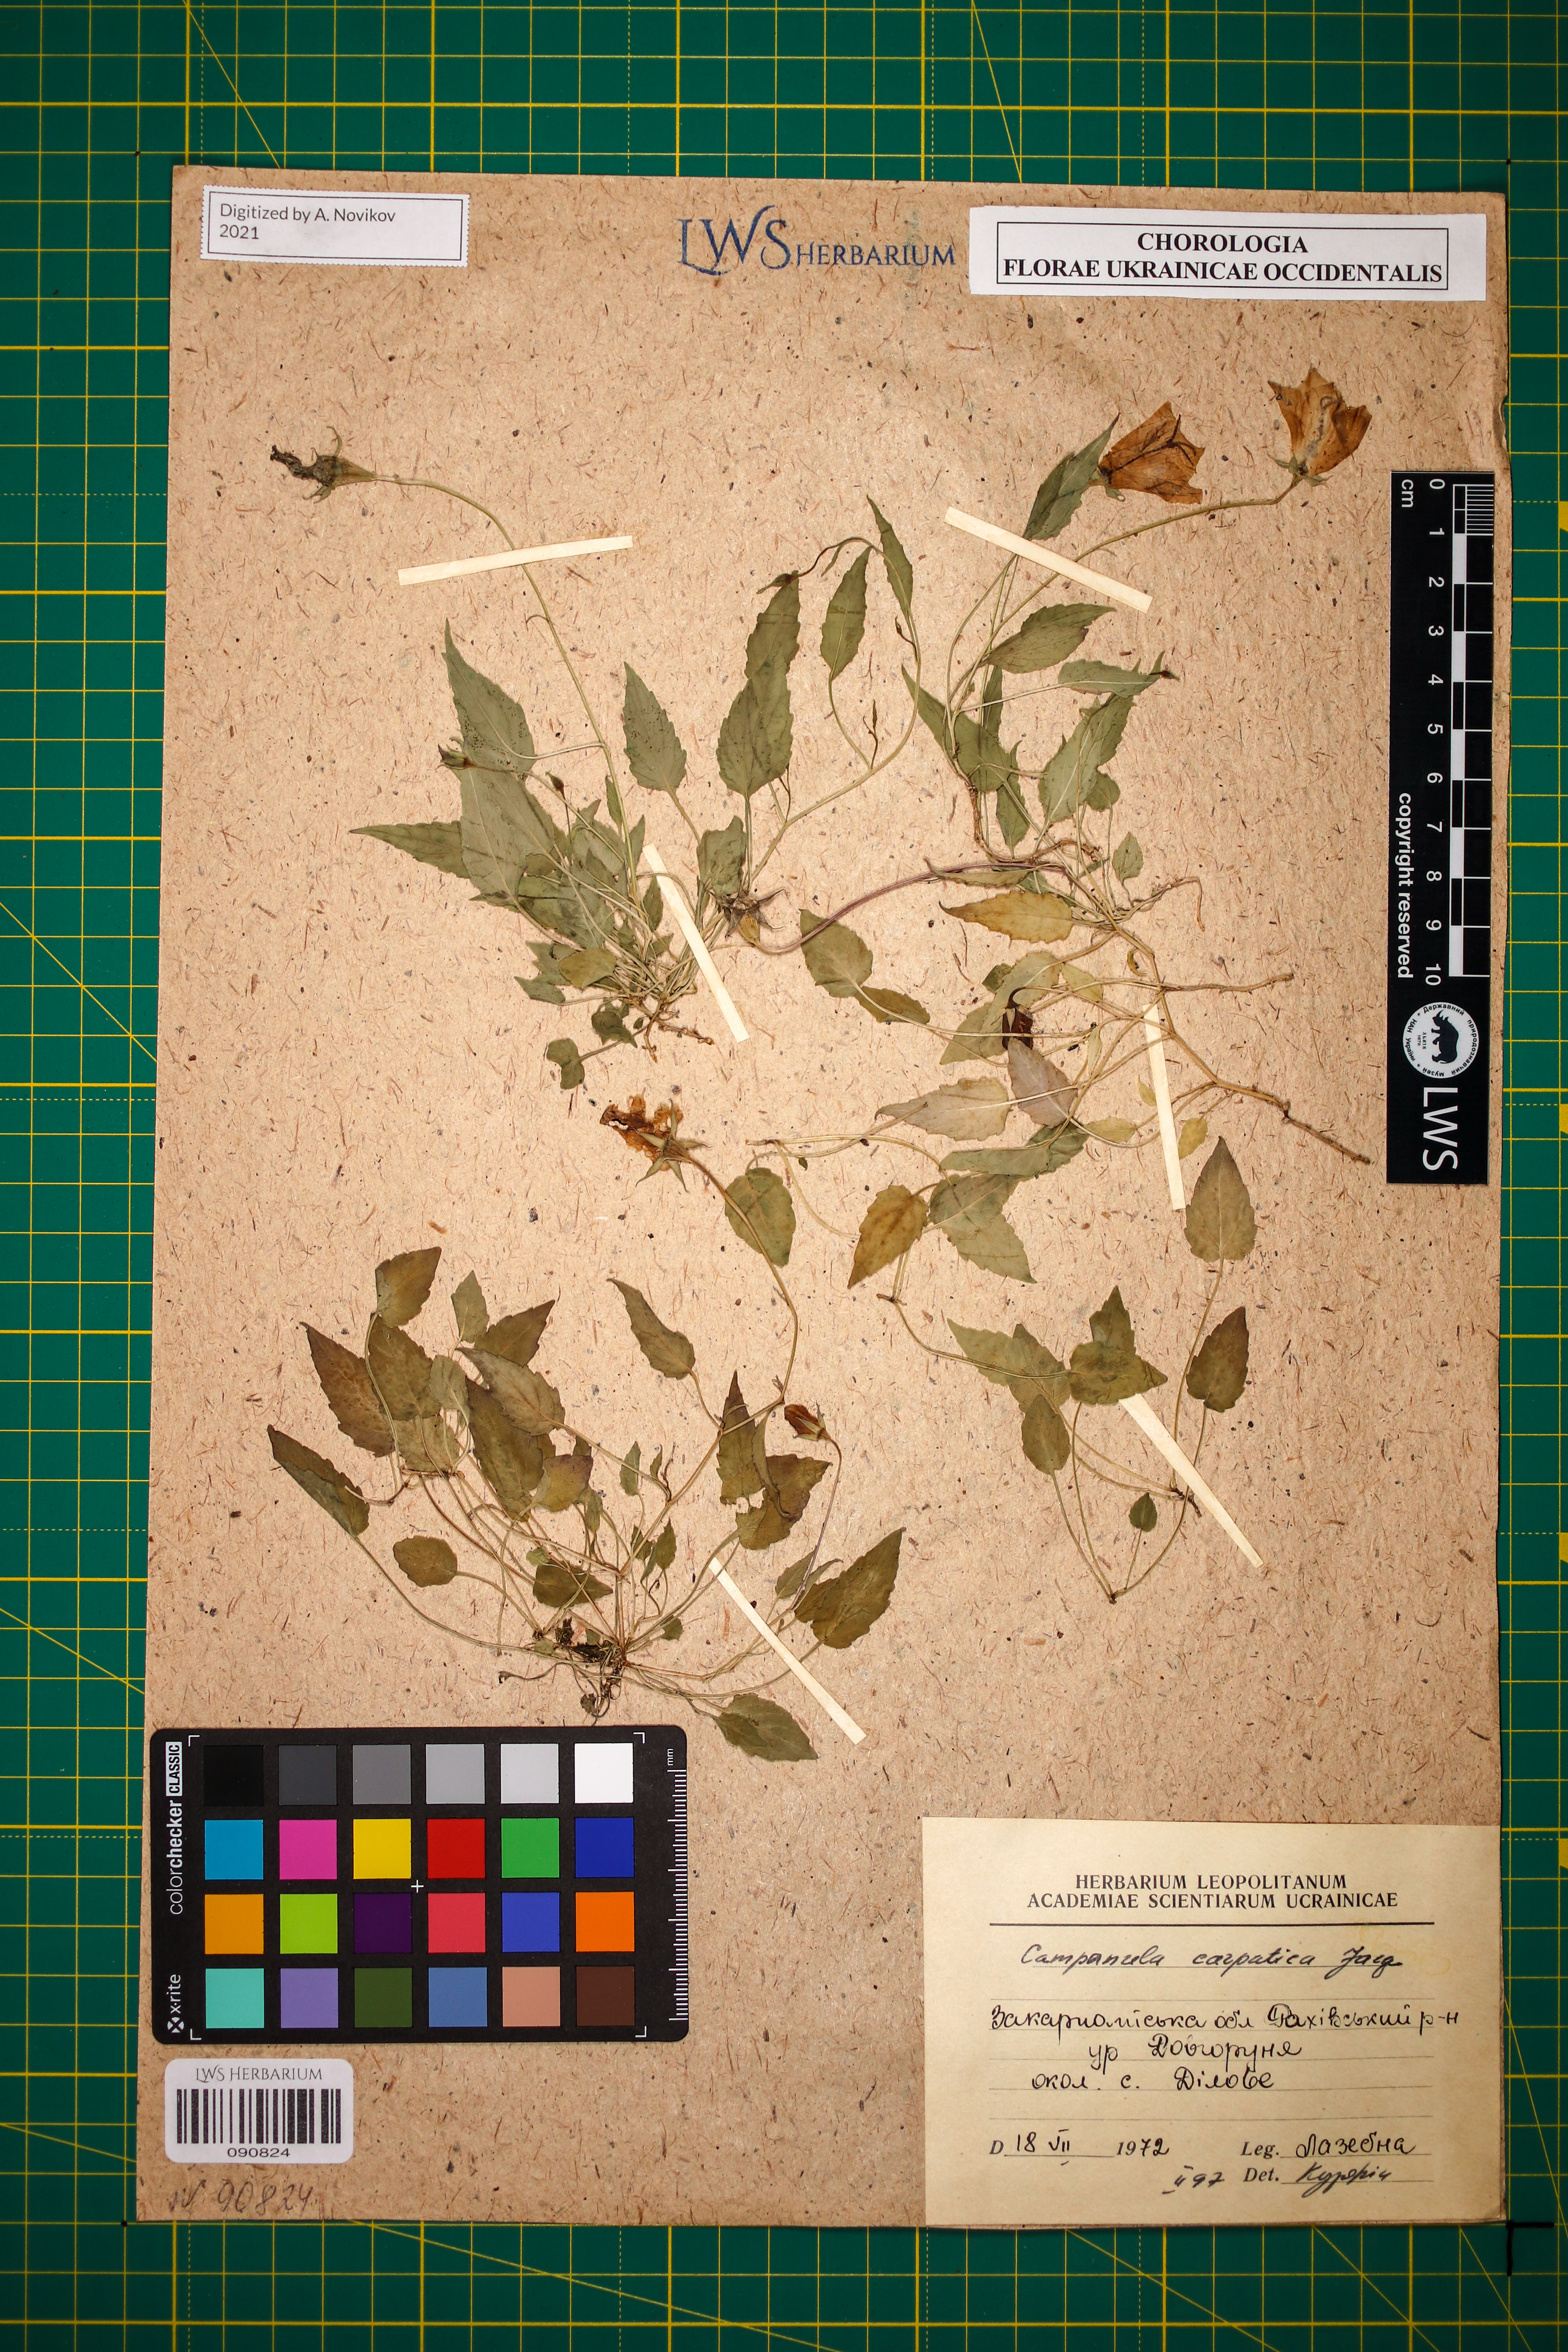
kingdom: Plantae
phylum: Tracheophyta
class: Magnoliopsida
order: Asterales
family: Campanulaceae
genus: Campanula
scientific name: Campanula carpatica
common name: Tussock bellflower
